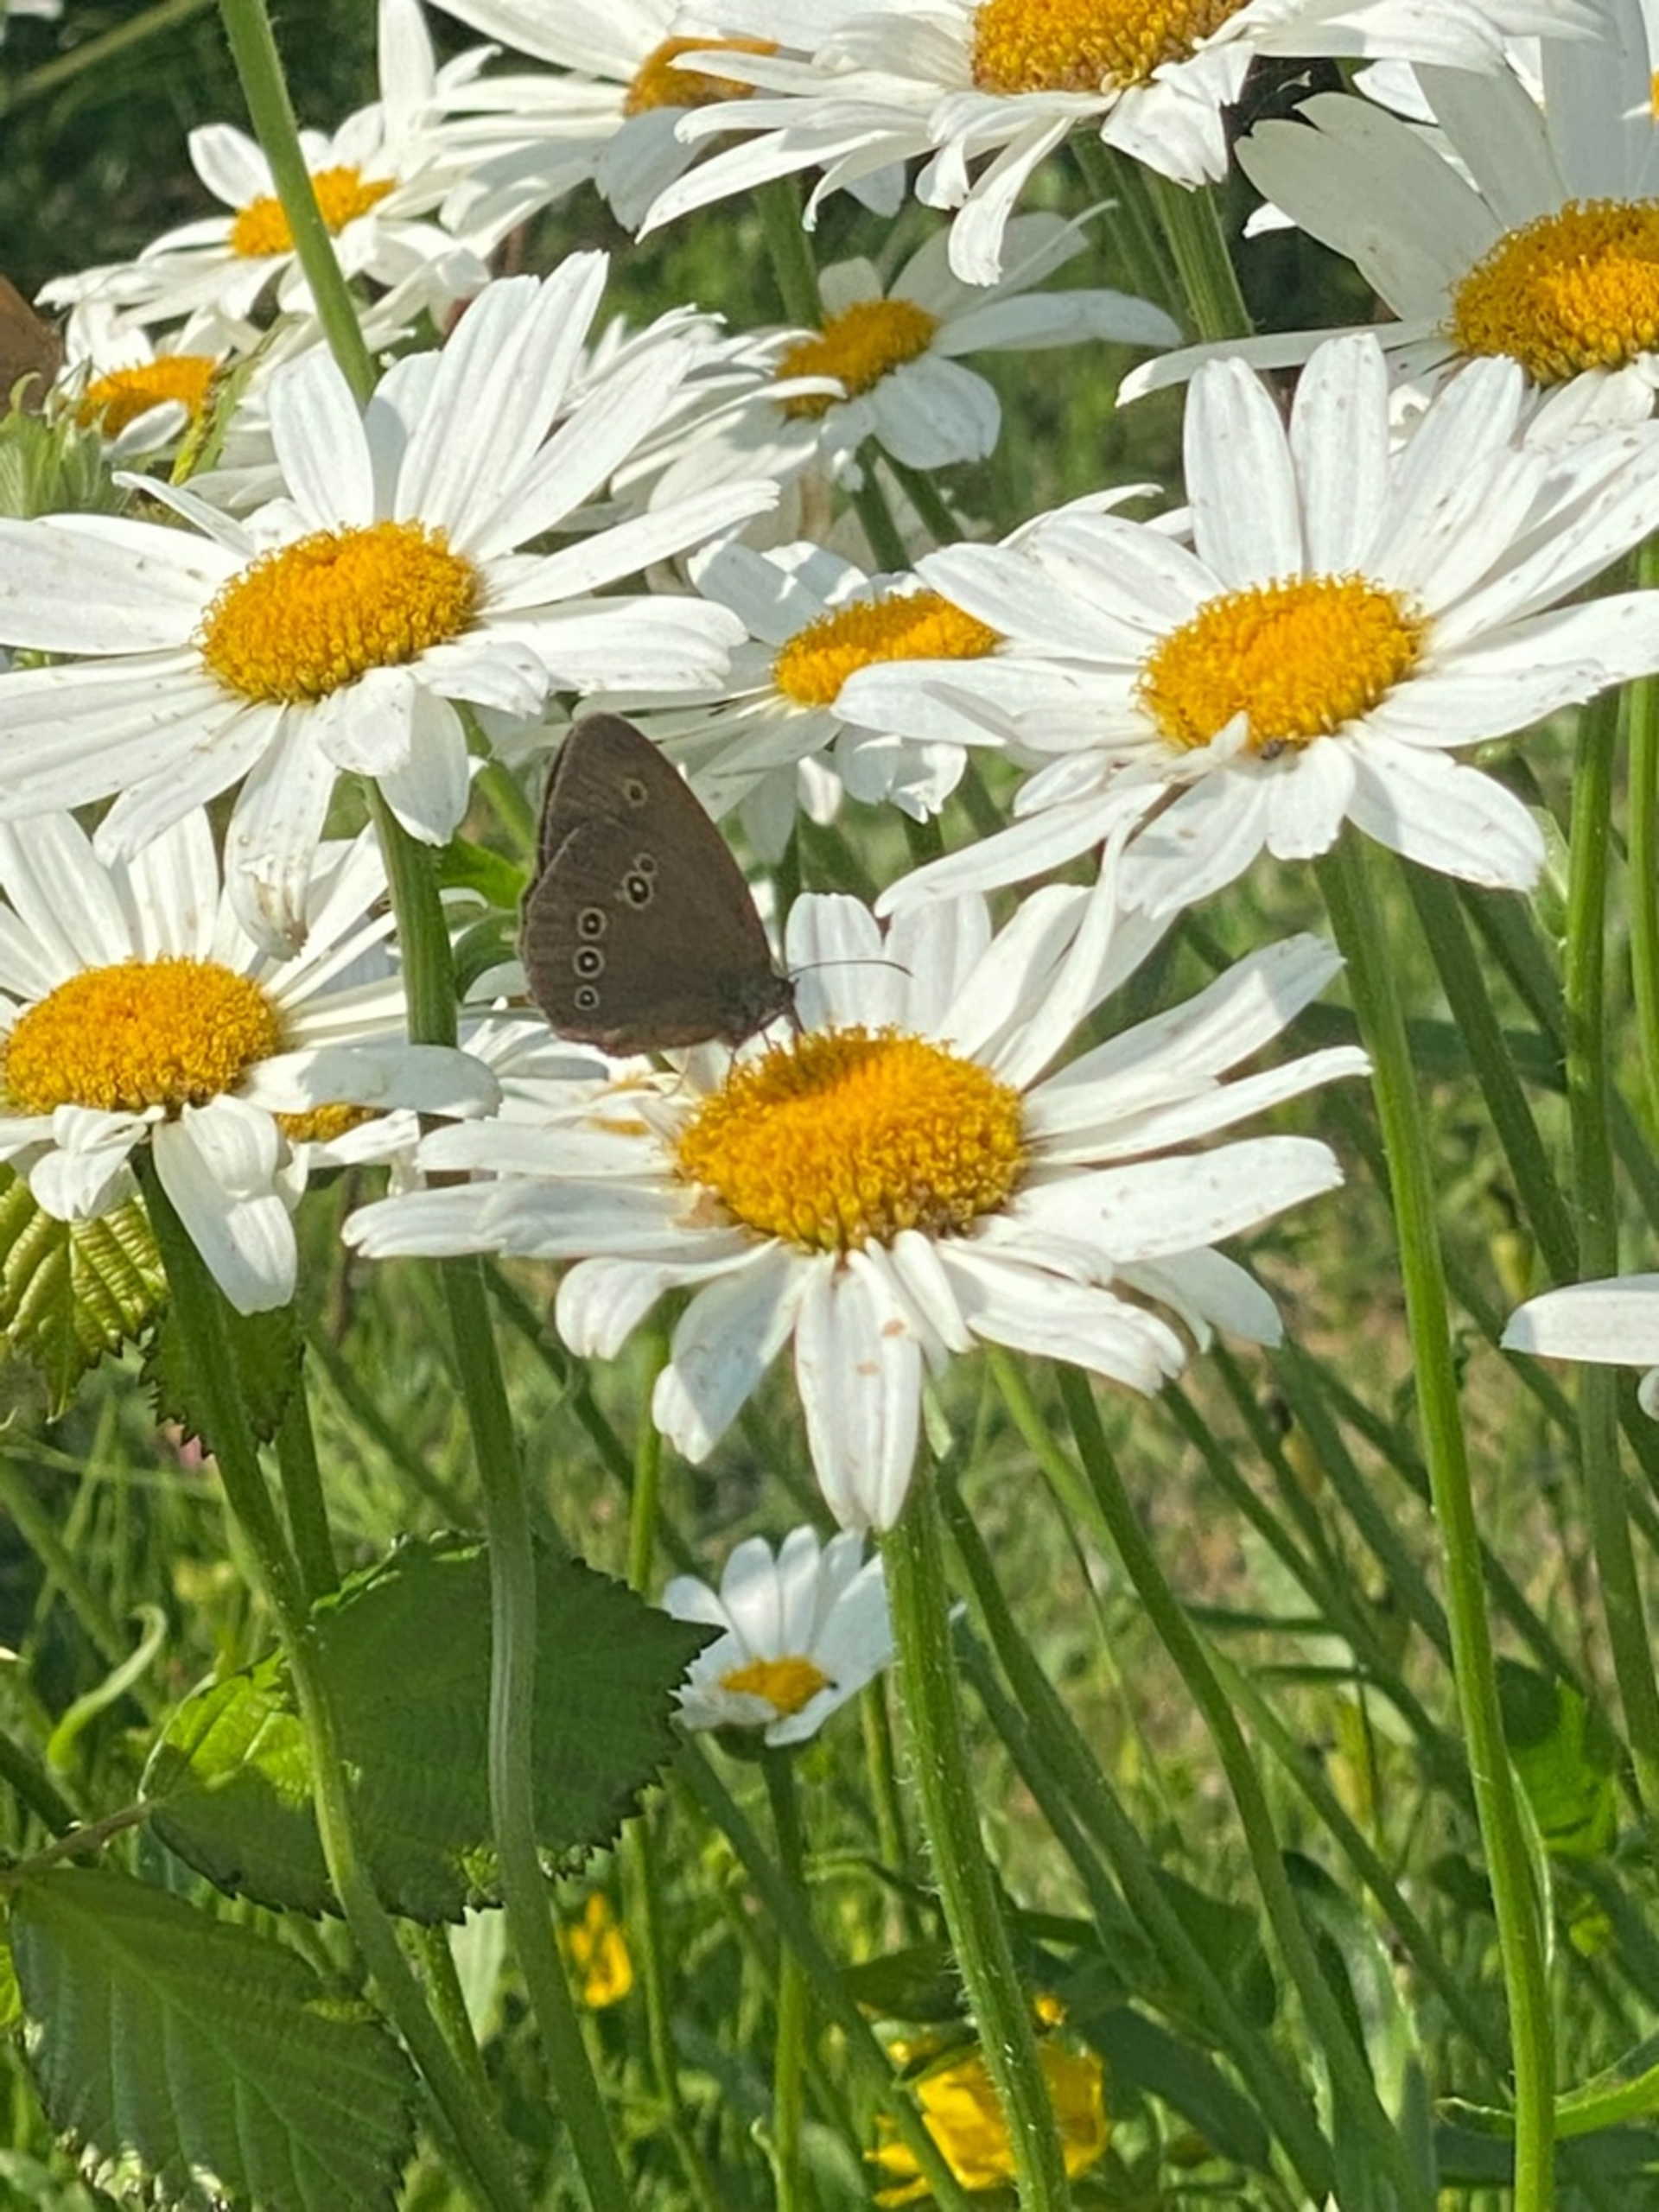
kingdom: Animalia
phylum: Arthropoda
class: Insecta
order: Lepidoptera
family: Nymphalidae
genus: Aphantopus
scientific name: Aphantopus hyperantus
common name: Engrandøje
